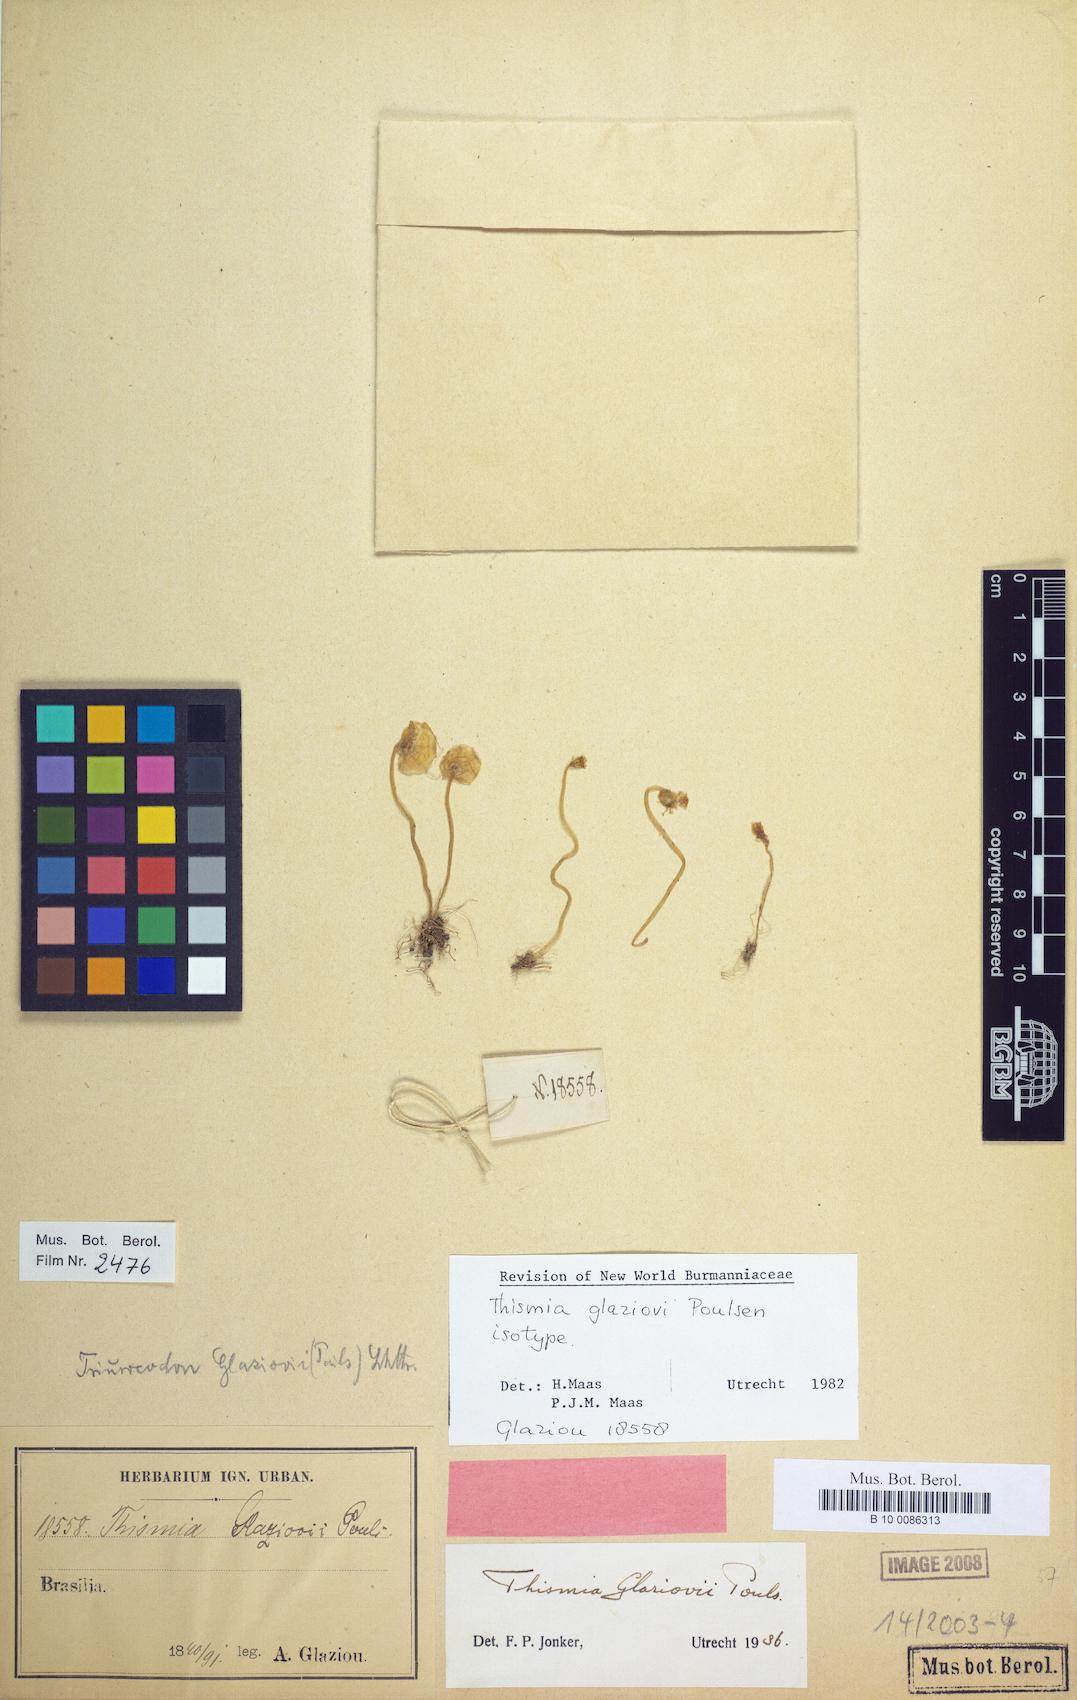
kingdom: Plantae
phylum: Tracheophyta
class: Liliopsida
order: Dioscoreales
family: Burmanniaceae
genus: Thismia
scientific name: Thismia glaziovii
